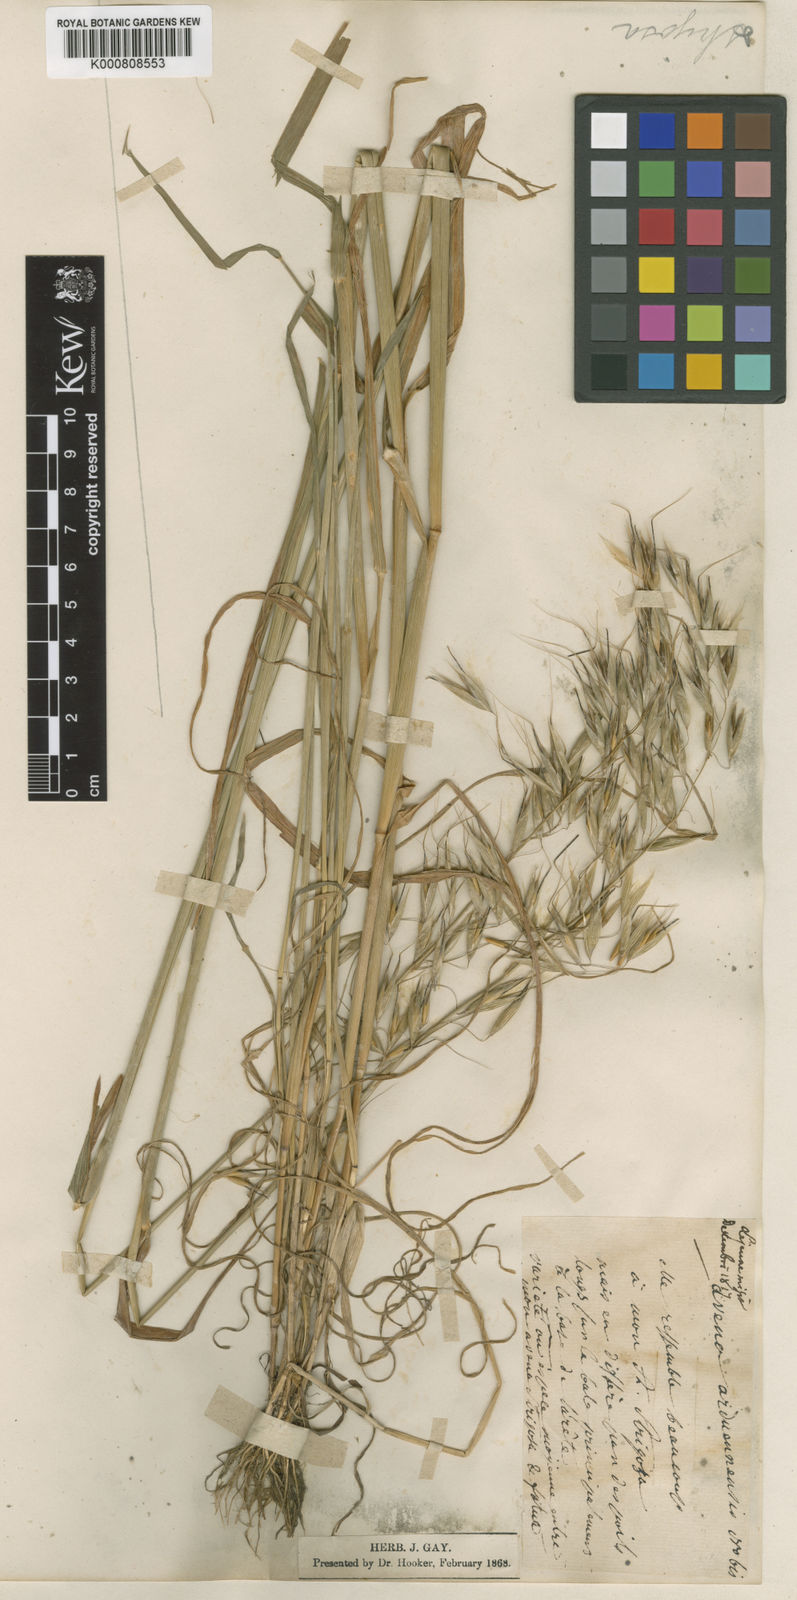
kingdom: Plantae
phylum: Tracheophyta
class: Liliopsida
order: Poales
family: Poaceae
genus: Avena
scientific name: Avena strigosa
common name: Bristle oat
